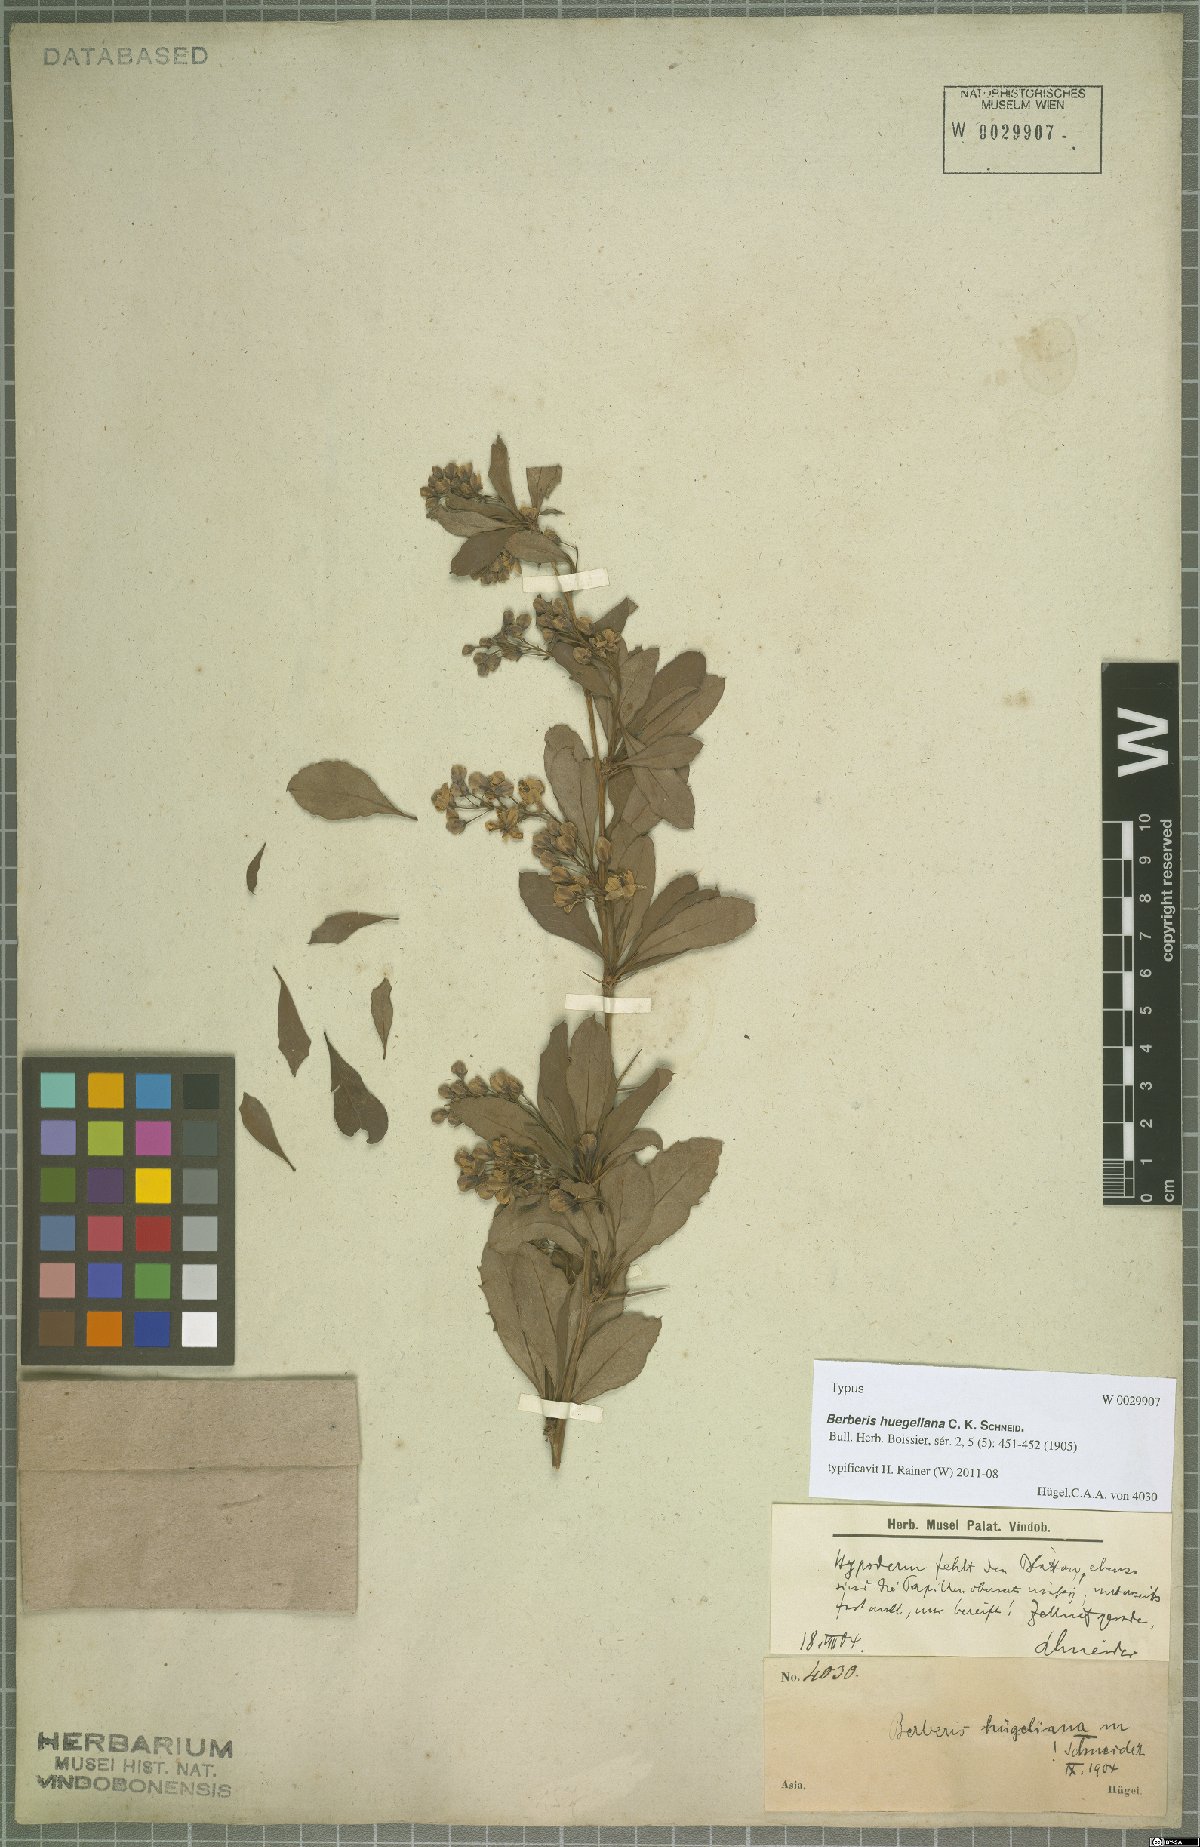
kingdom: Plantae
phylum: Tracheophyta
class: Magnoliopsida
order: Ranunculales
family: Berberidaceae
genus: Berberis
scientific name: Berberis huegeliana
